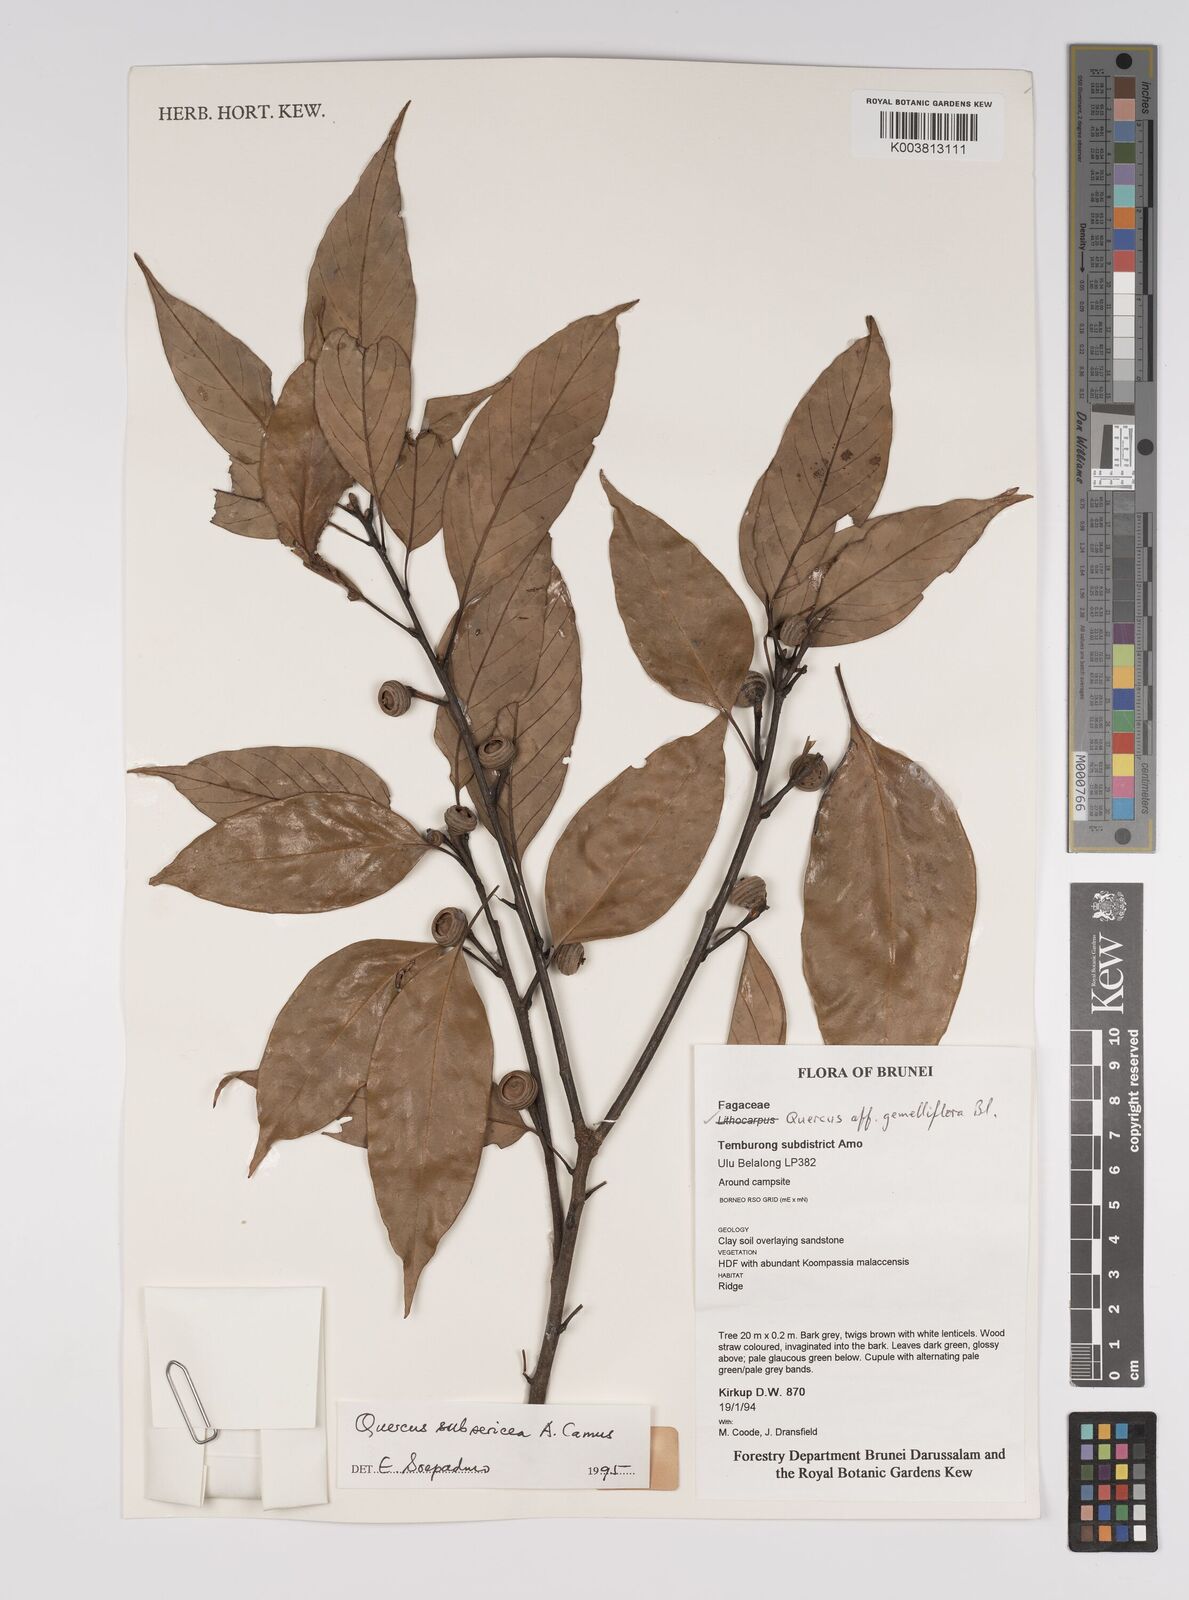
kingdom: Plantae
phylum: Tracheophyta
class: Magnoliopsida
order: Fagales
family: Fagaceae
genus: Quercus
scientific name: Quercus subsericea
